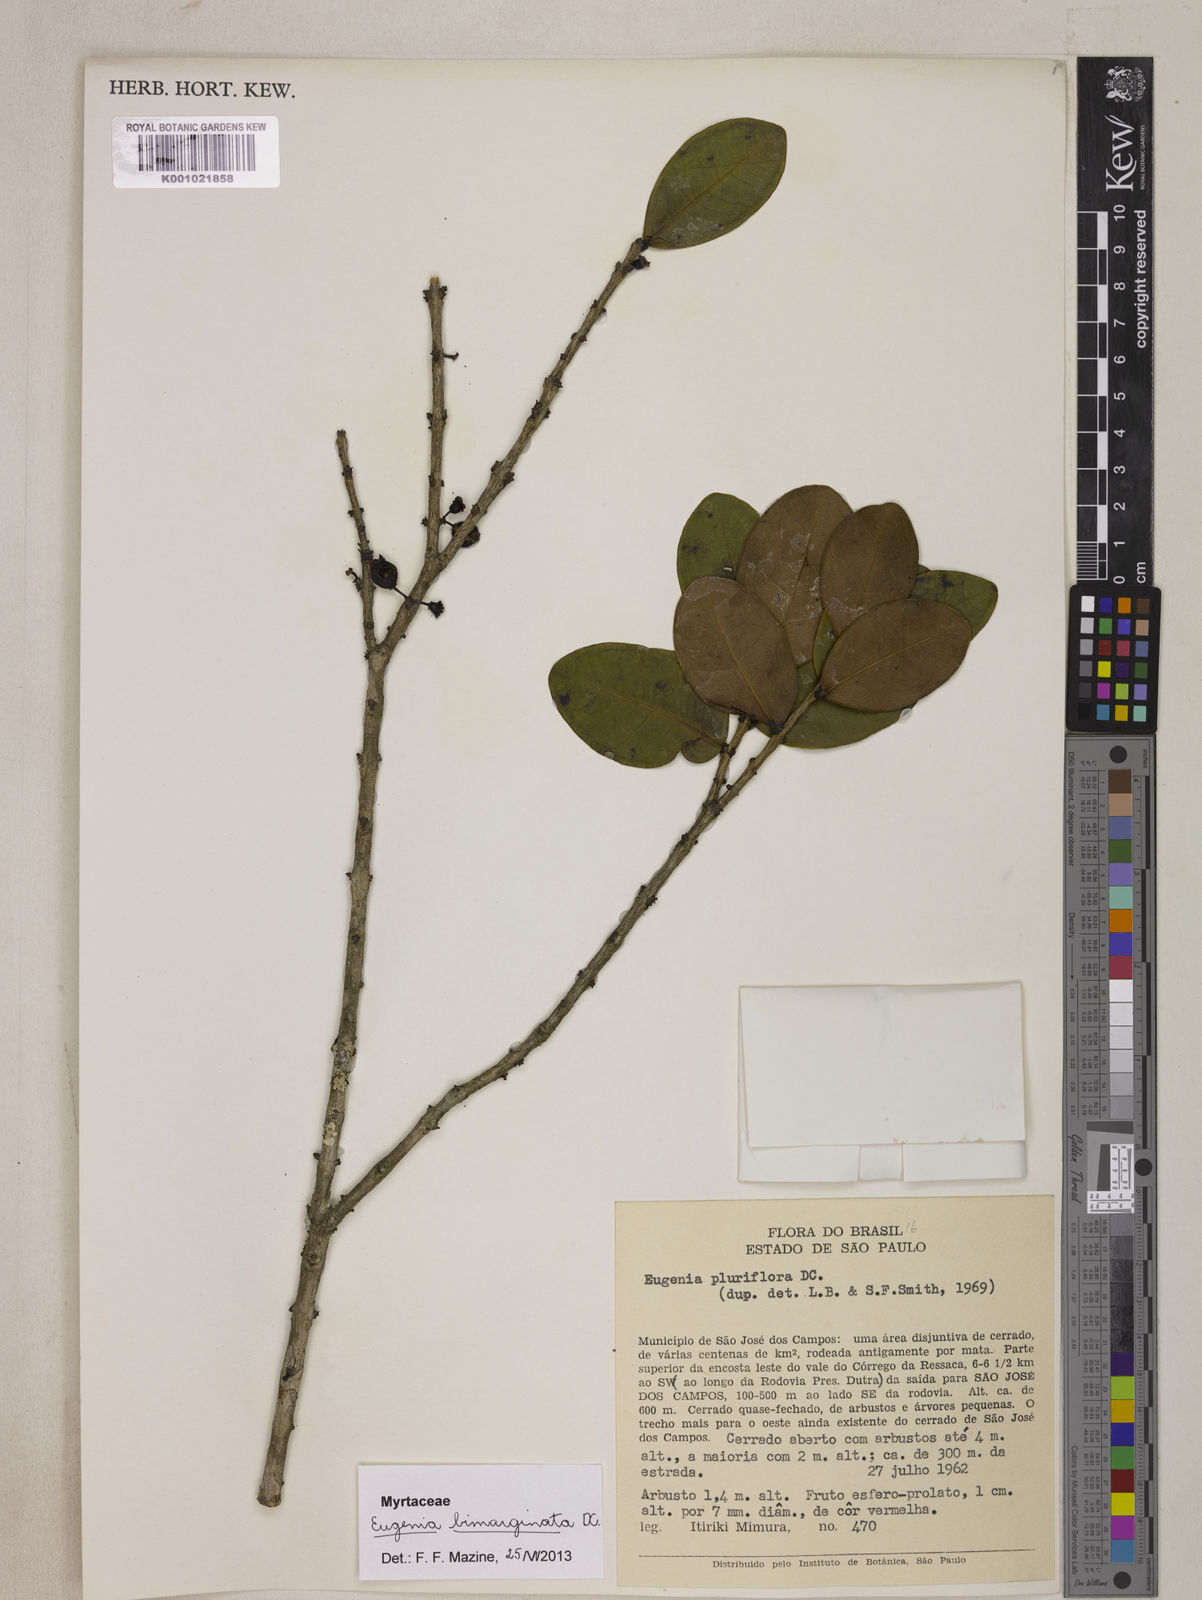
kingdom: Plantae
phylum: Tracheophyta
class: Magnoliopsida
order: Myrtales
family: Myrtaceae
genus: Eugenia
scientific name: Eugenia bimarginata
